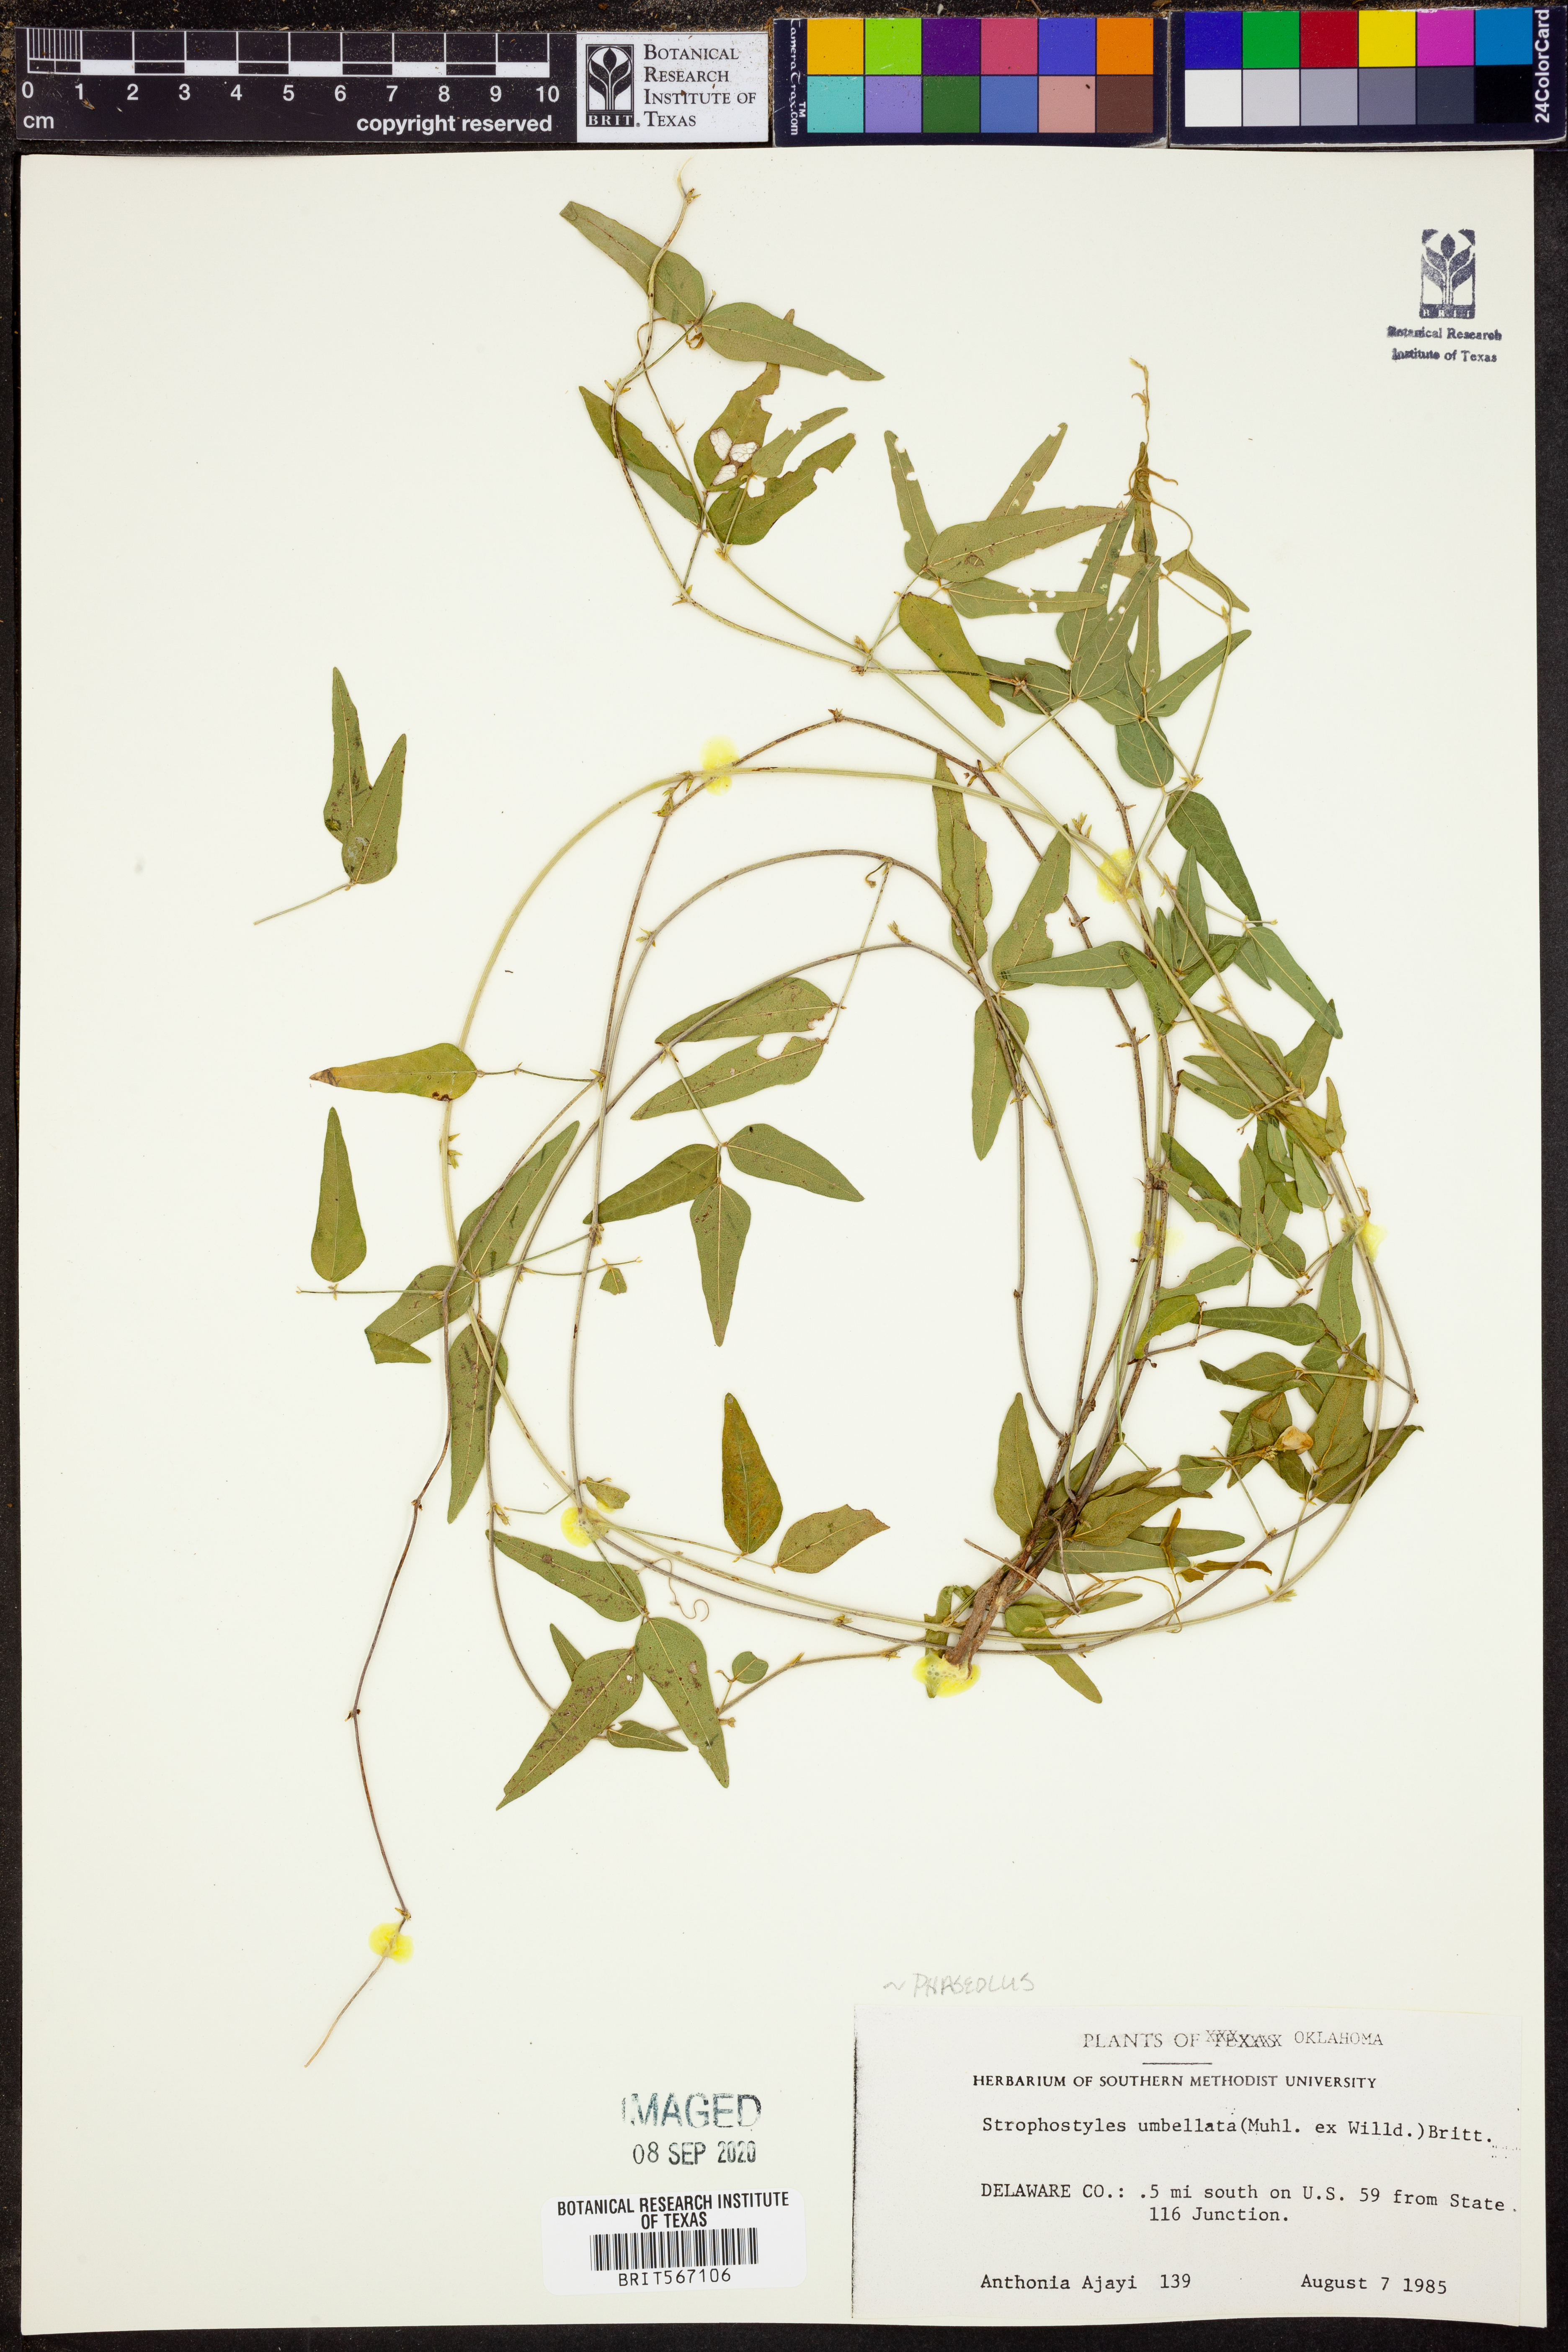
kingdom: Plantae
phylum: Tracheophyta
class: Magnoliopsida
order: Fabales
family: Fabaceae
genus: Strophostyles
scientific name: Strophostyles umbellata
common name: Perennial wild bean
